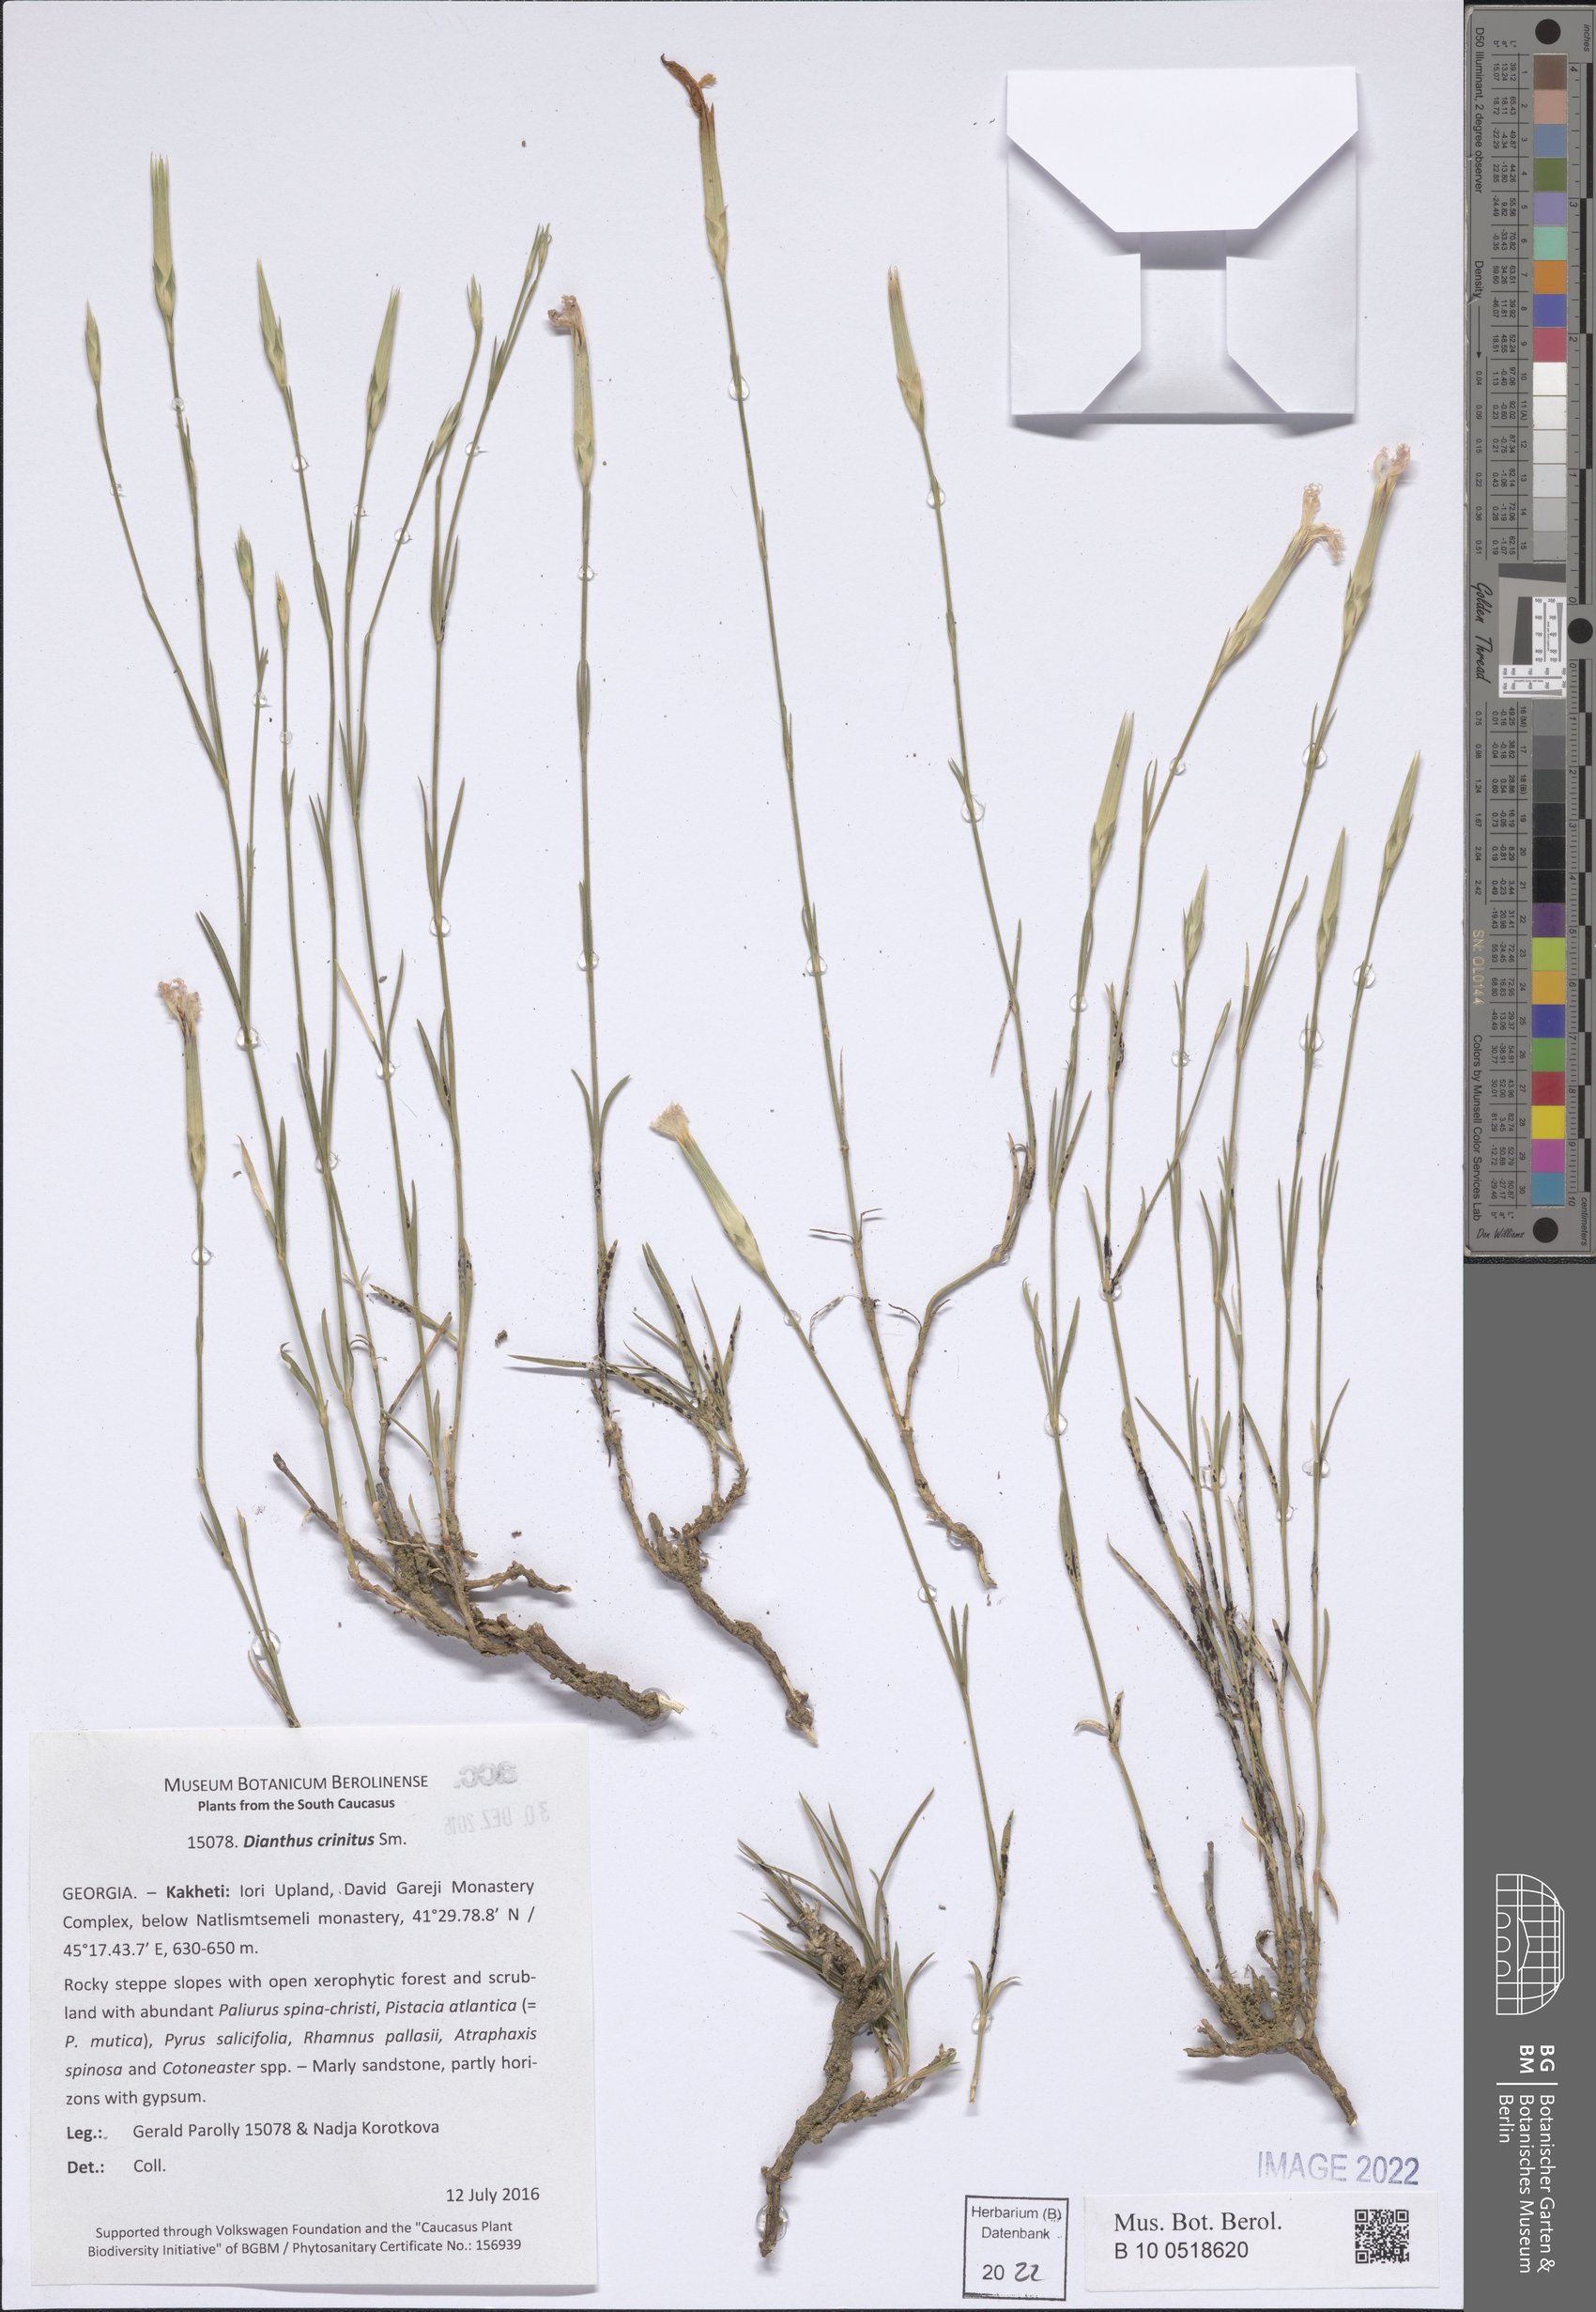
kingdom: Plantae
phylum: Tracheophyta
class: Magnoliopsida
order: Caryophyllales
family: Caryophyllaceae
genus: Dianthus
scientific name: Dianthus crinitus
